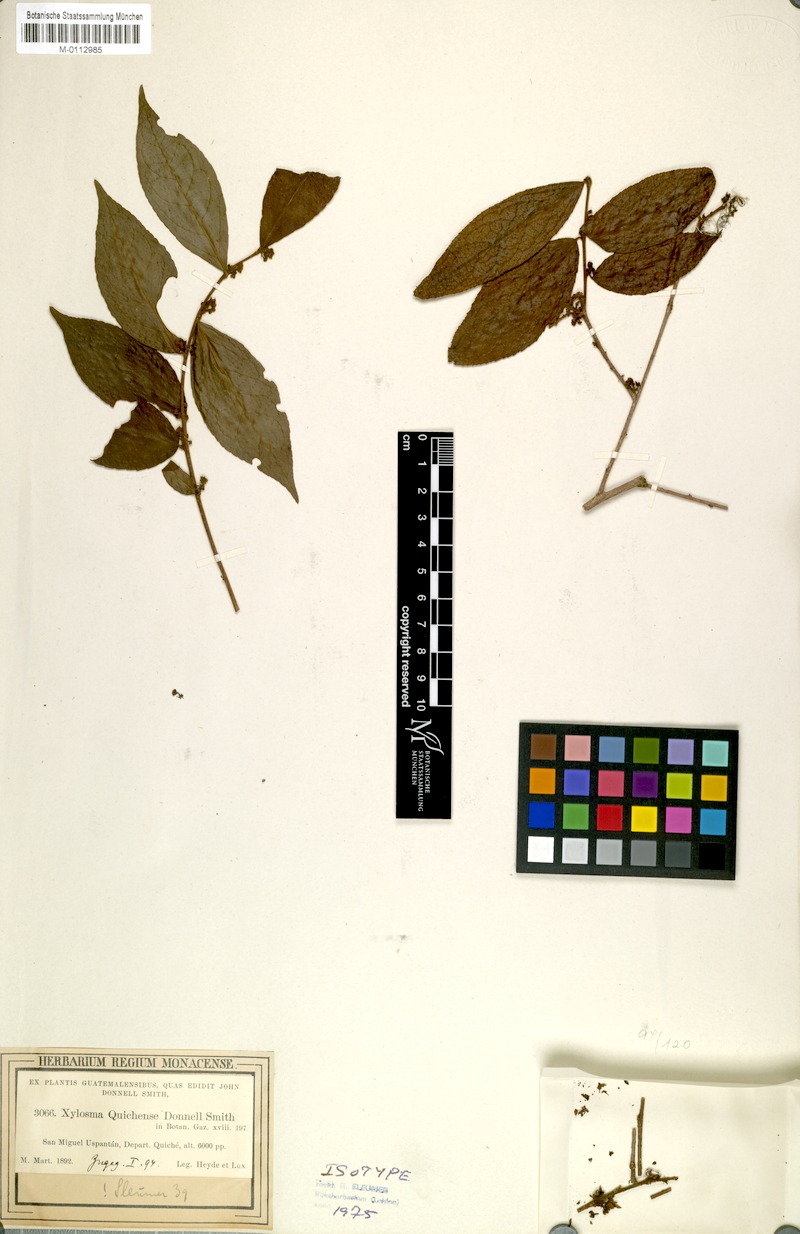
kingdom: Plantae
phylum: Tracheophyta
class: Magnoliopsida
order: Malpighiales
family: Salicaceae
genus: Xylosma
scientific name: Xylosma quichensis
